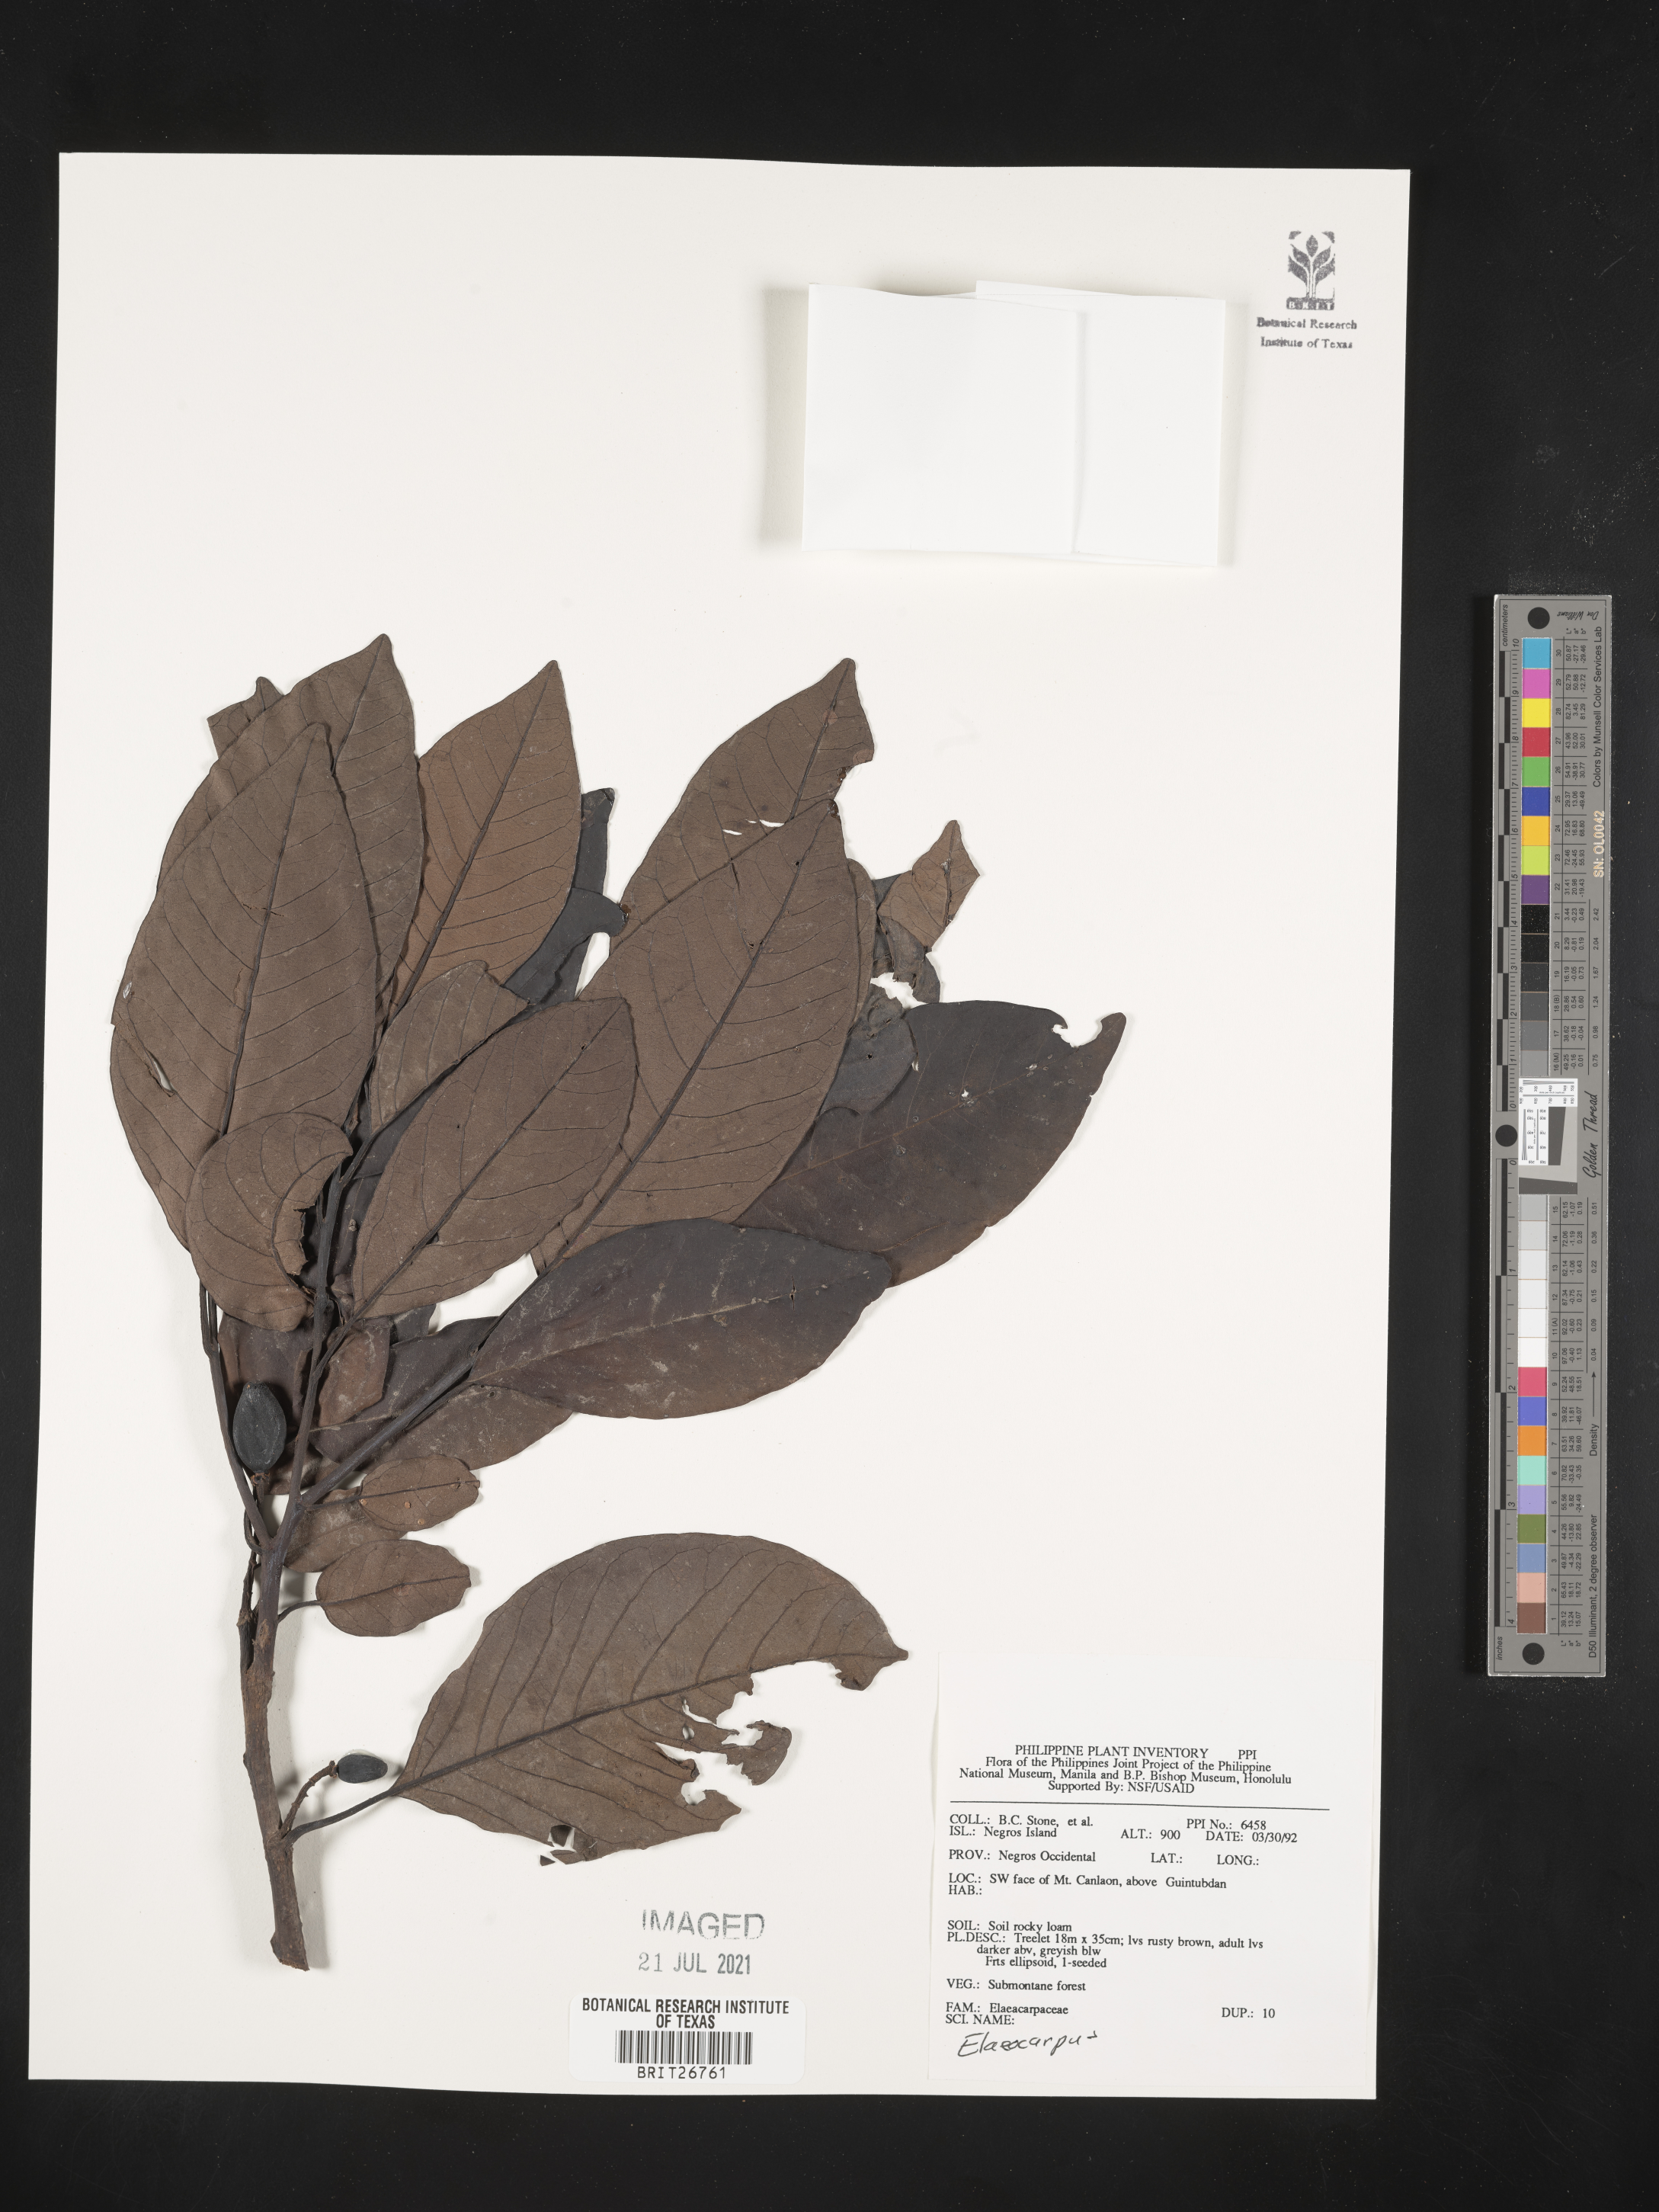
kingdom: Plantae
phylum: Tracheophyta
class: Magnoliopsida
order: Oxalidales
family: Elaeocarpaceae
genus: Elaeocarpus
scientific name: Elaeocarpus
